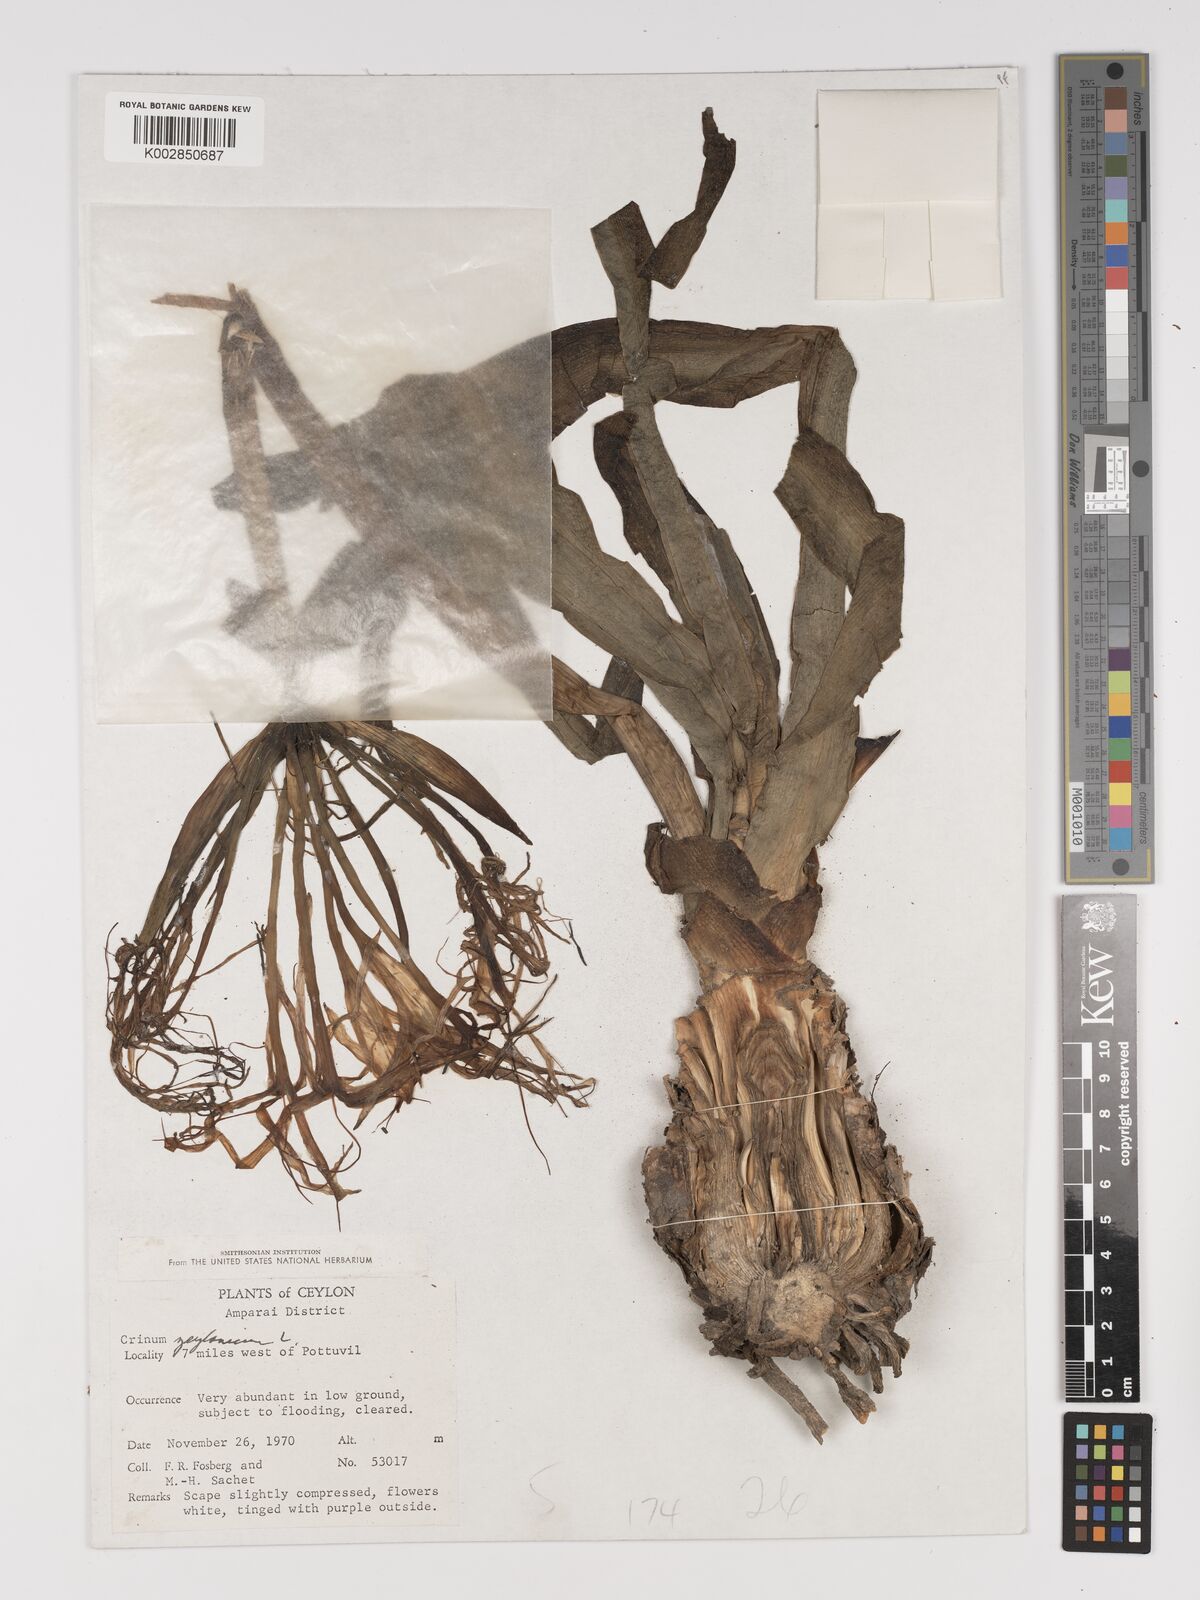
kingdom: Plantae
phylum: Tracheophyta
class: Liliopsida
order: Asparagales
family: Amaryllidaceae
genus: Crinum
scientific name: Crinum zeylanicum
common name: Ceylon swamplily
